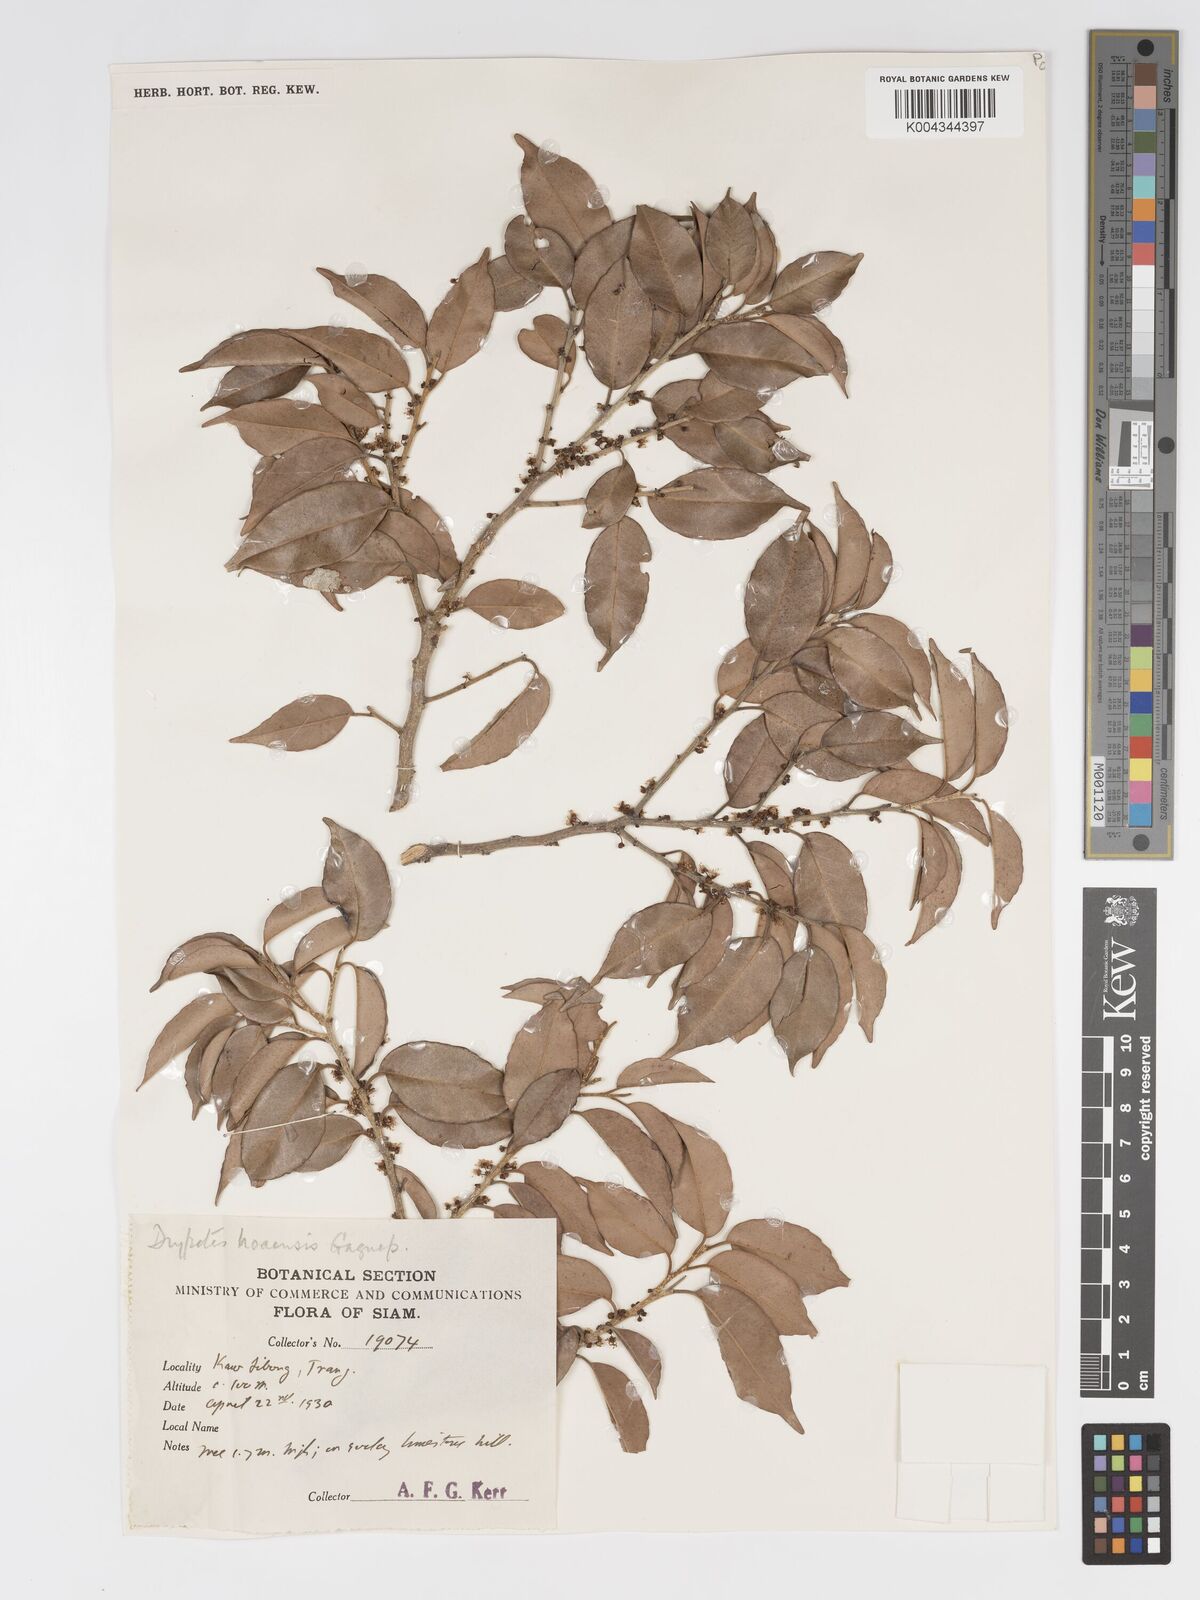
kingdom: Plantae
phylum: Tracheophyta
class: Magnoliopsida
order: Malpighiales
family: Putranjivaceae
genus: Drypetes
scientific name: Drypetes hoaensis
